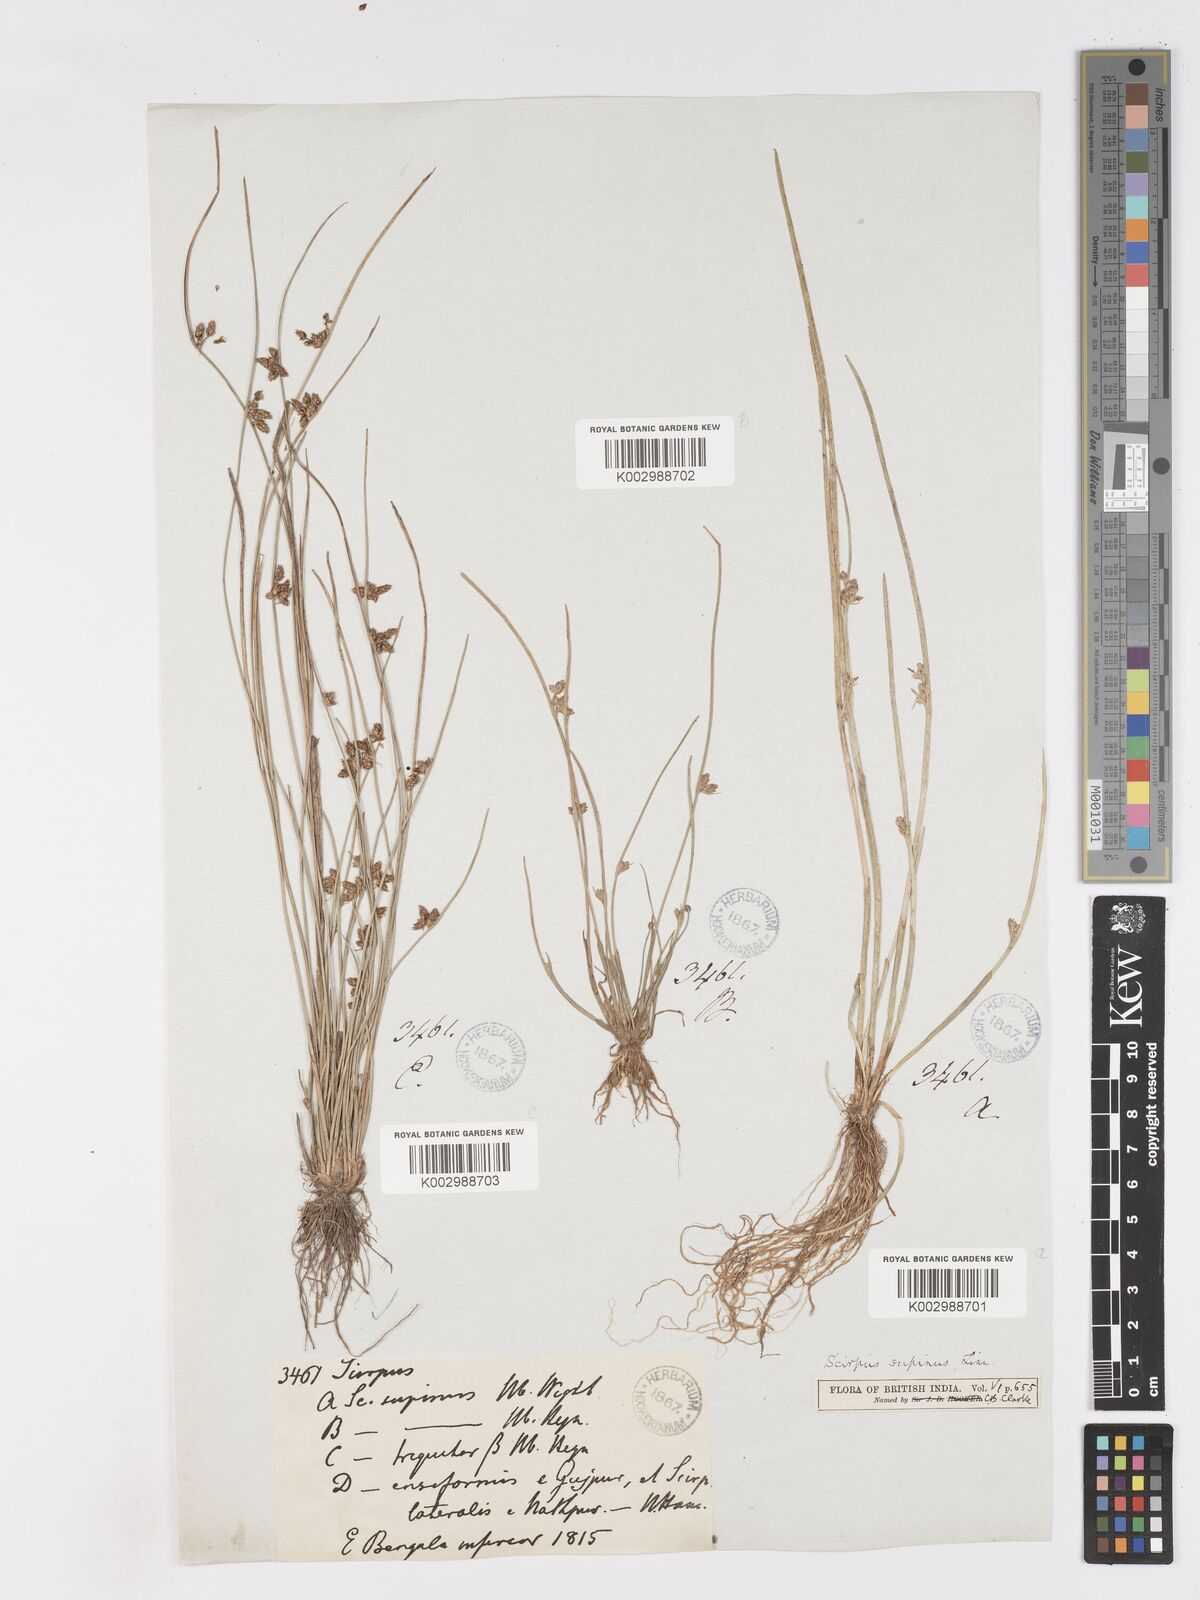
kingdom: Plantae
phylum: Tracheophyta
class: Liliopsida
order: Poales
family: Cyperaceae
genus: Schoenoplectiella
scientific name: Schoenoplectiella lateriflora
